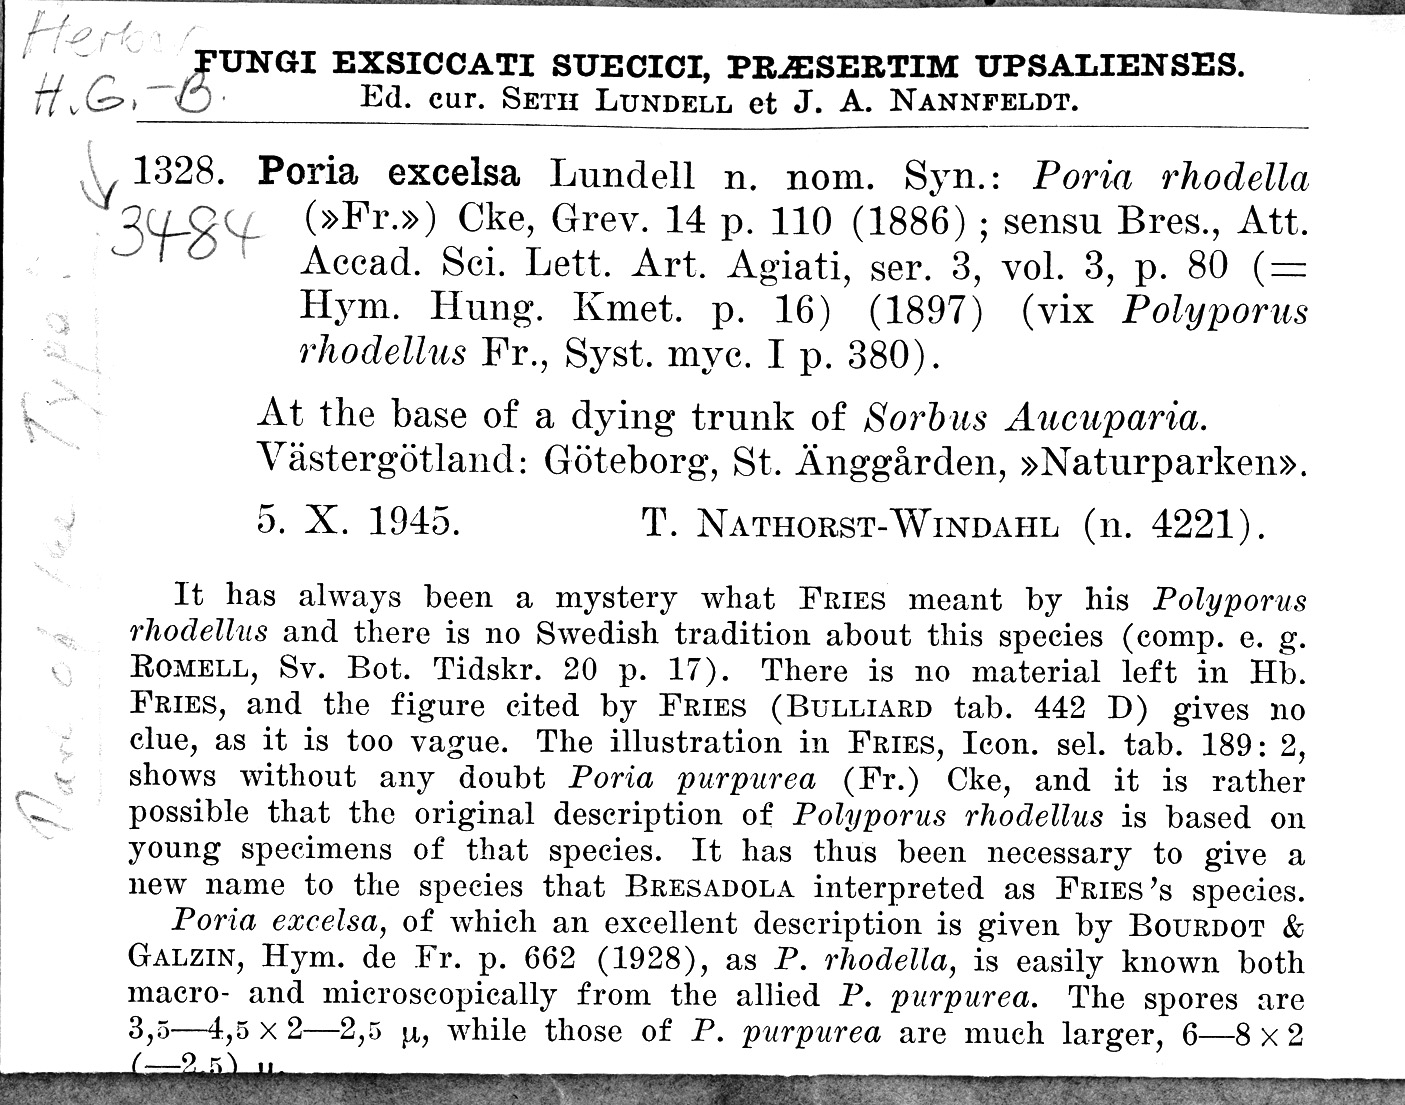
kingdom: Fungi
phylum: Basidiomycota
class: Agaricomycetes
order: Polyporales
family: Irpicaceae
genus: Ceriporia
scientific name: Ceriporia excelsa
